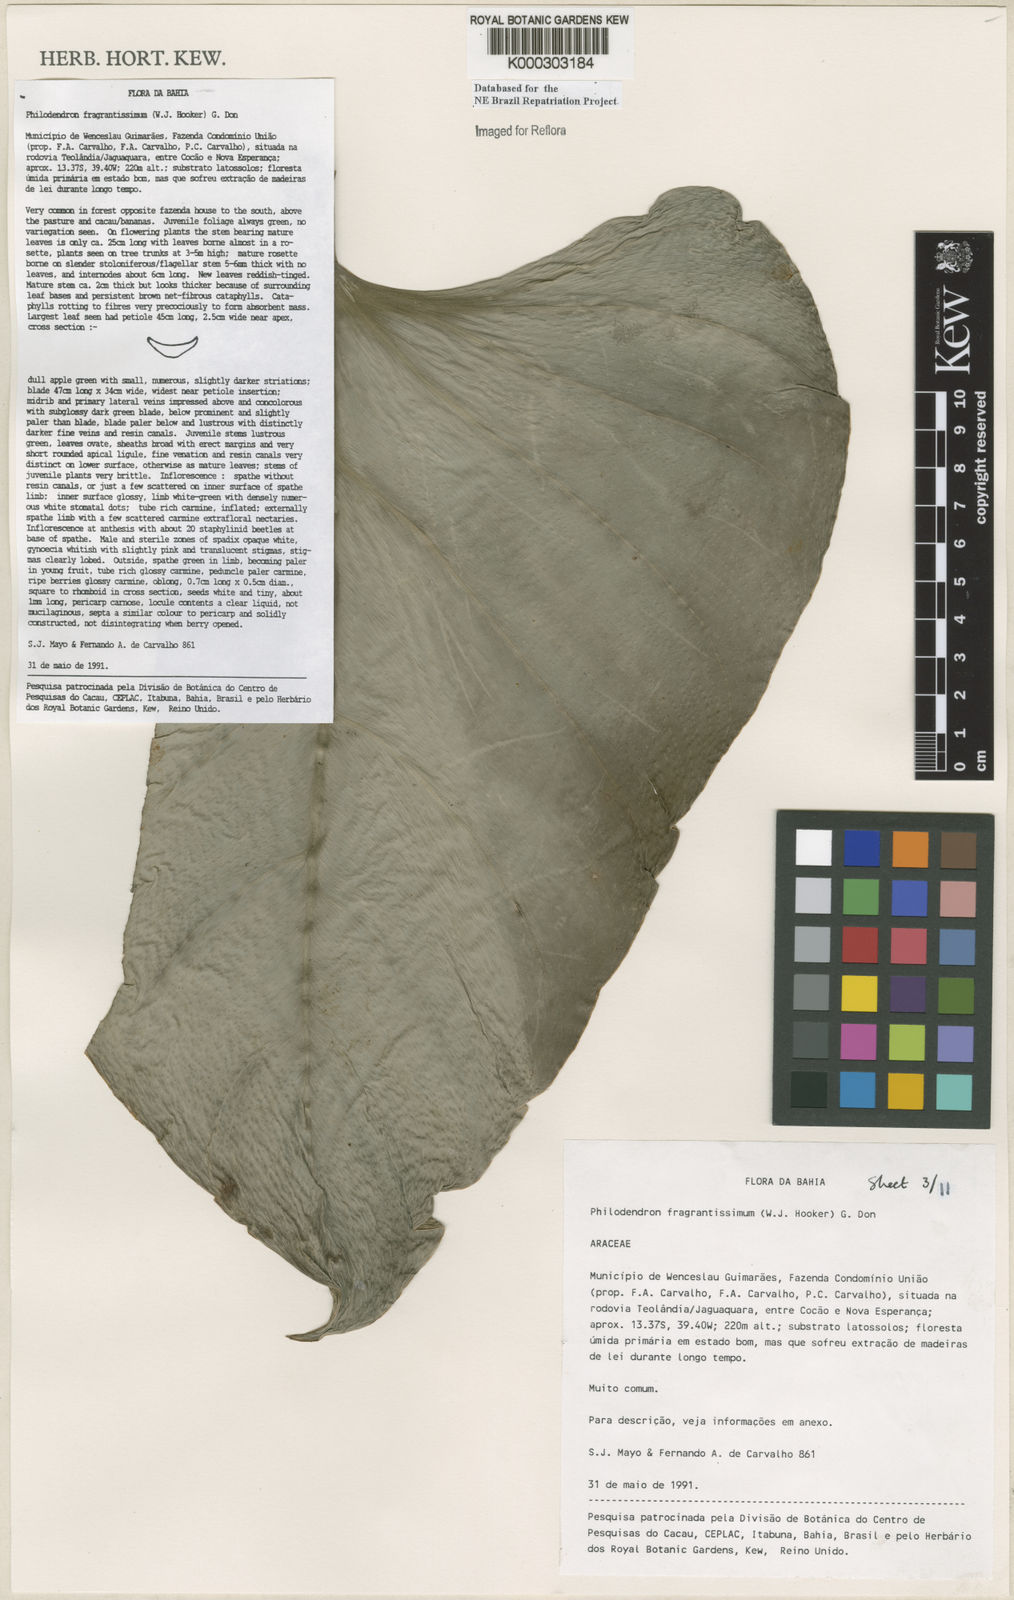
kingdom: Plantae
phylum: Tracheophyta
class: Liliopsida
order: Alismatales
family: Araceae
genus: Philodendron
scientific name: Philodendron fragrantissimum
